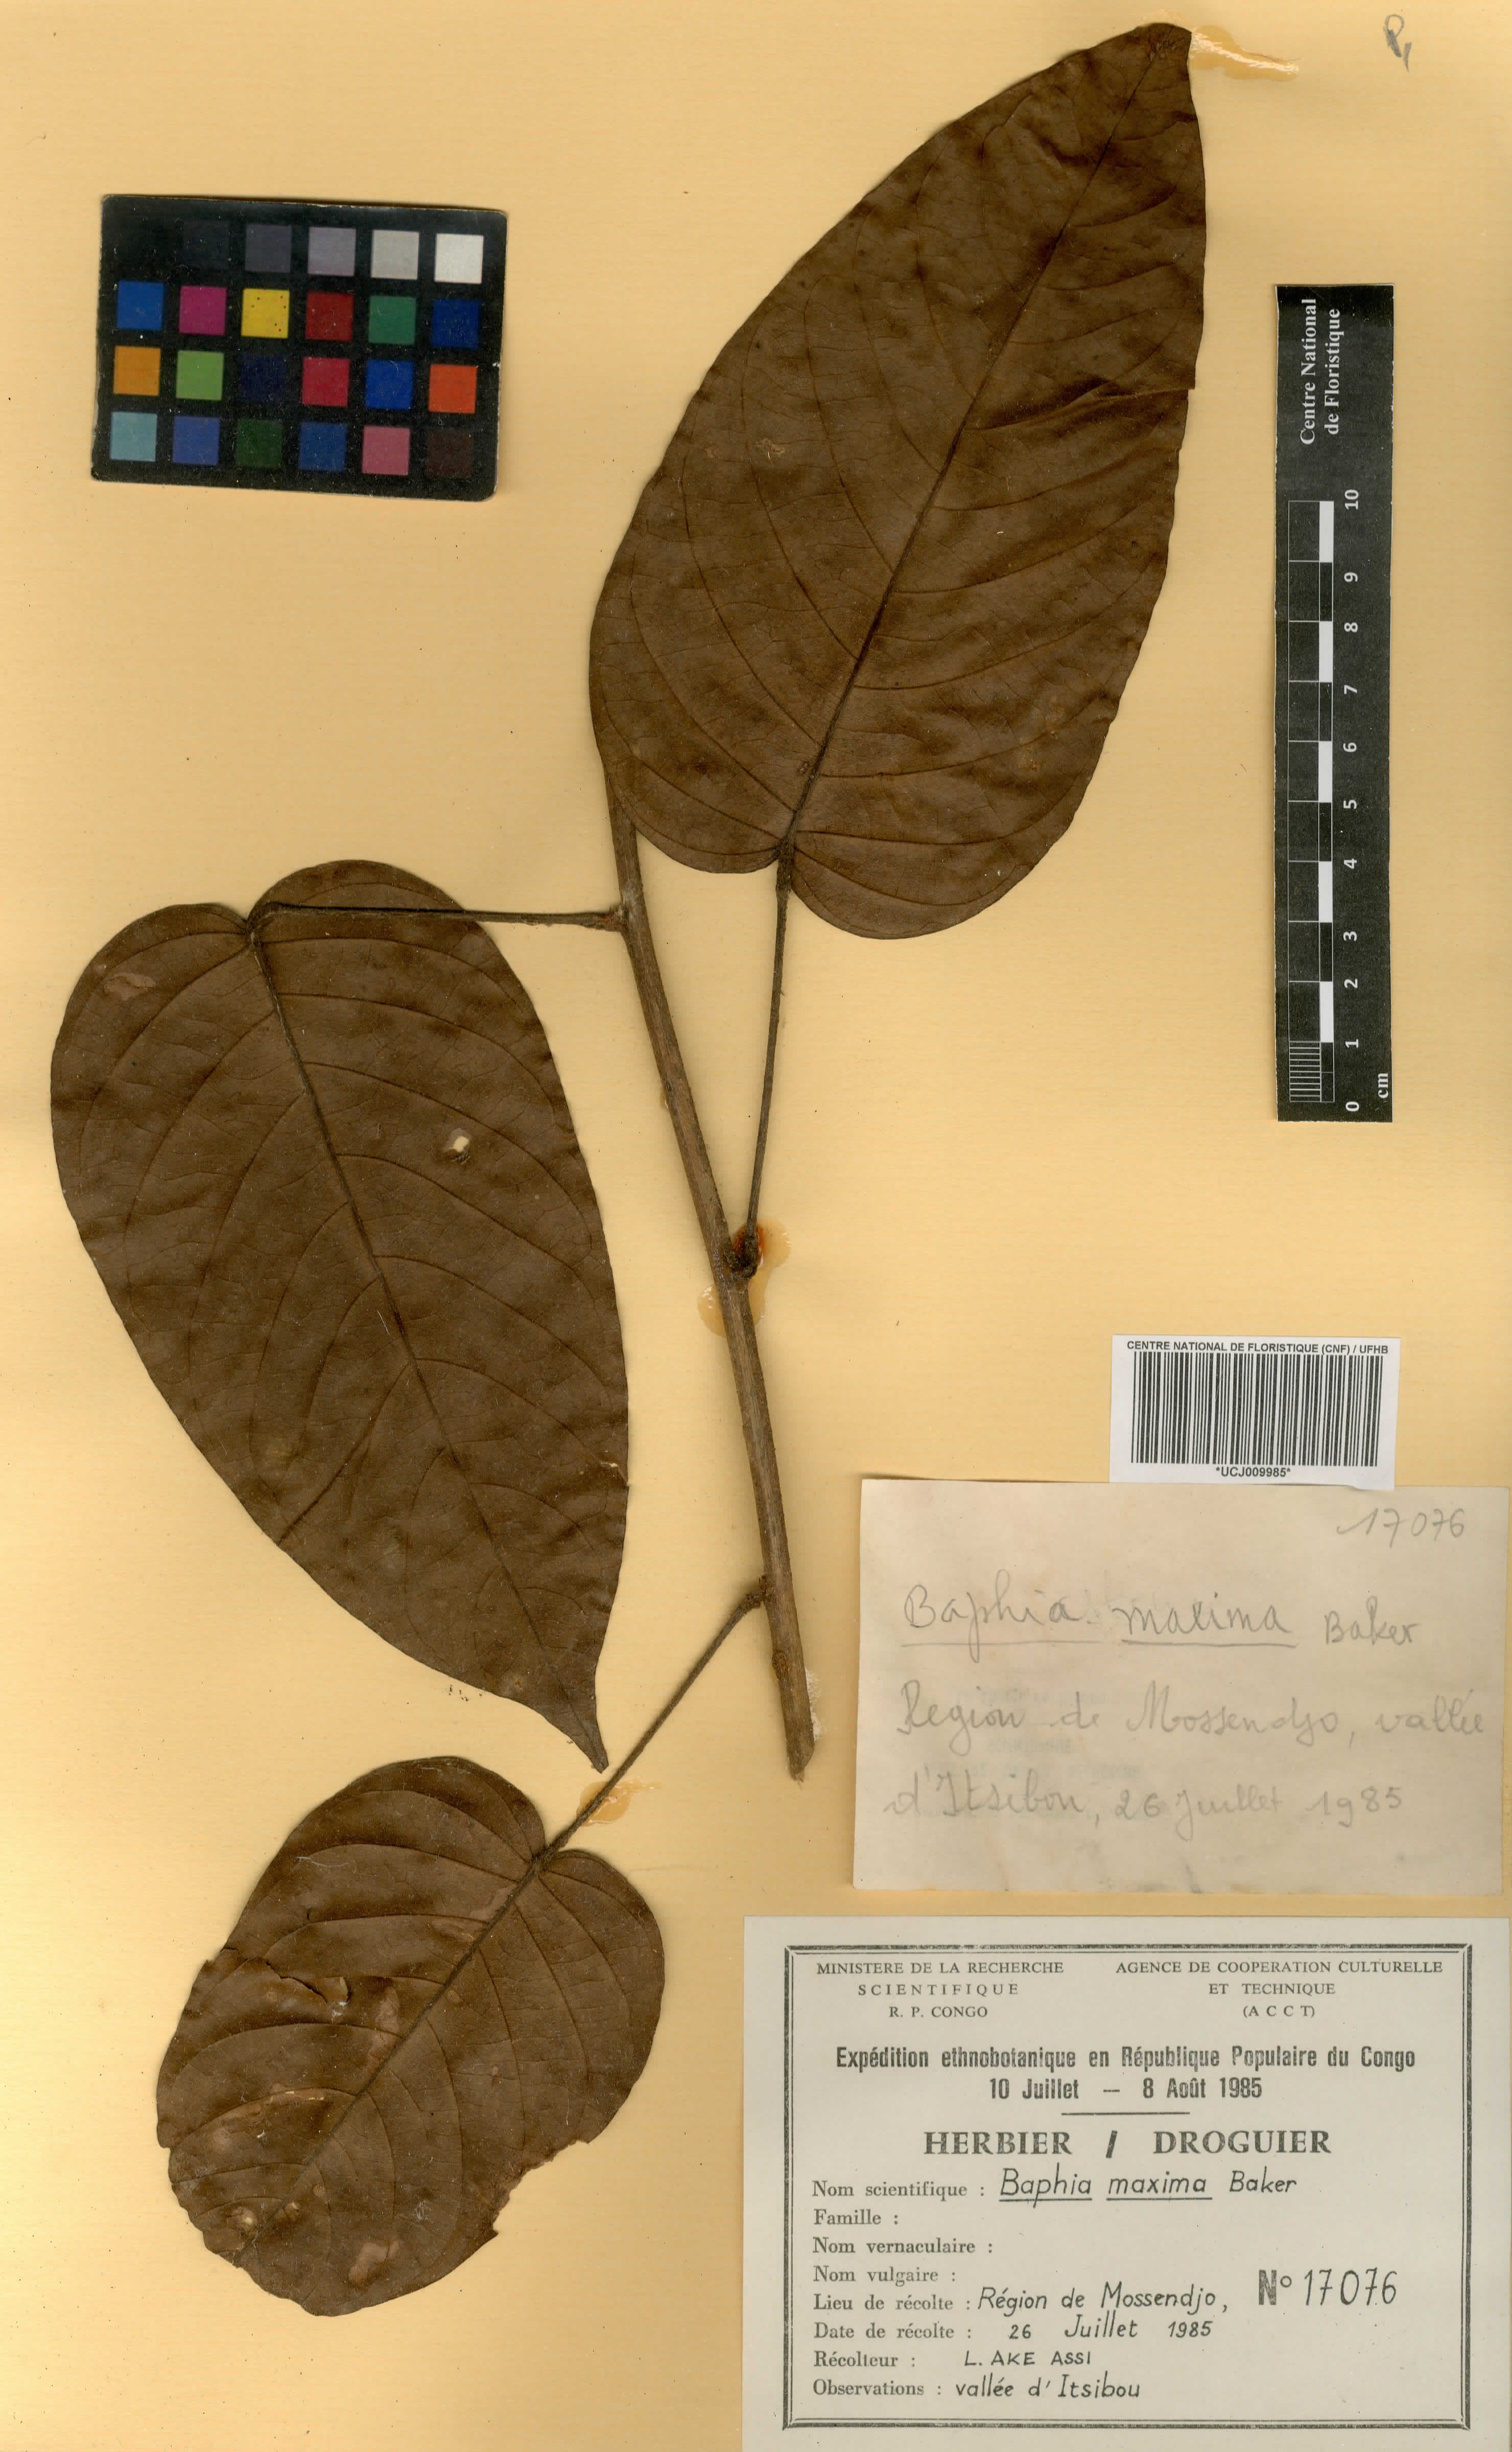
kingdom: Plantae
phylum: Tracheophyta
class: Magnoliopsida
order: Fabales
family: Fabaceae
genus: Baphia
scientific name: Baphia maxima
